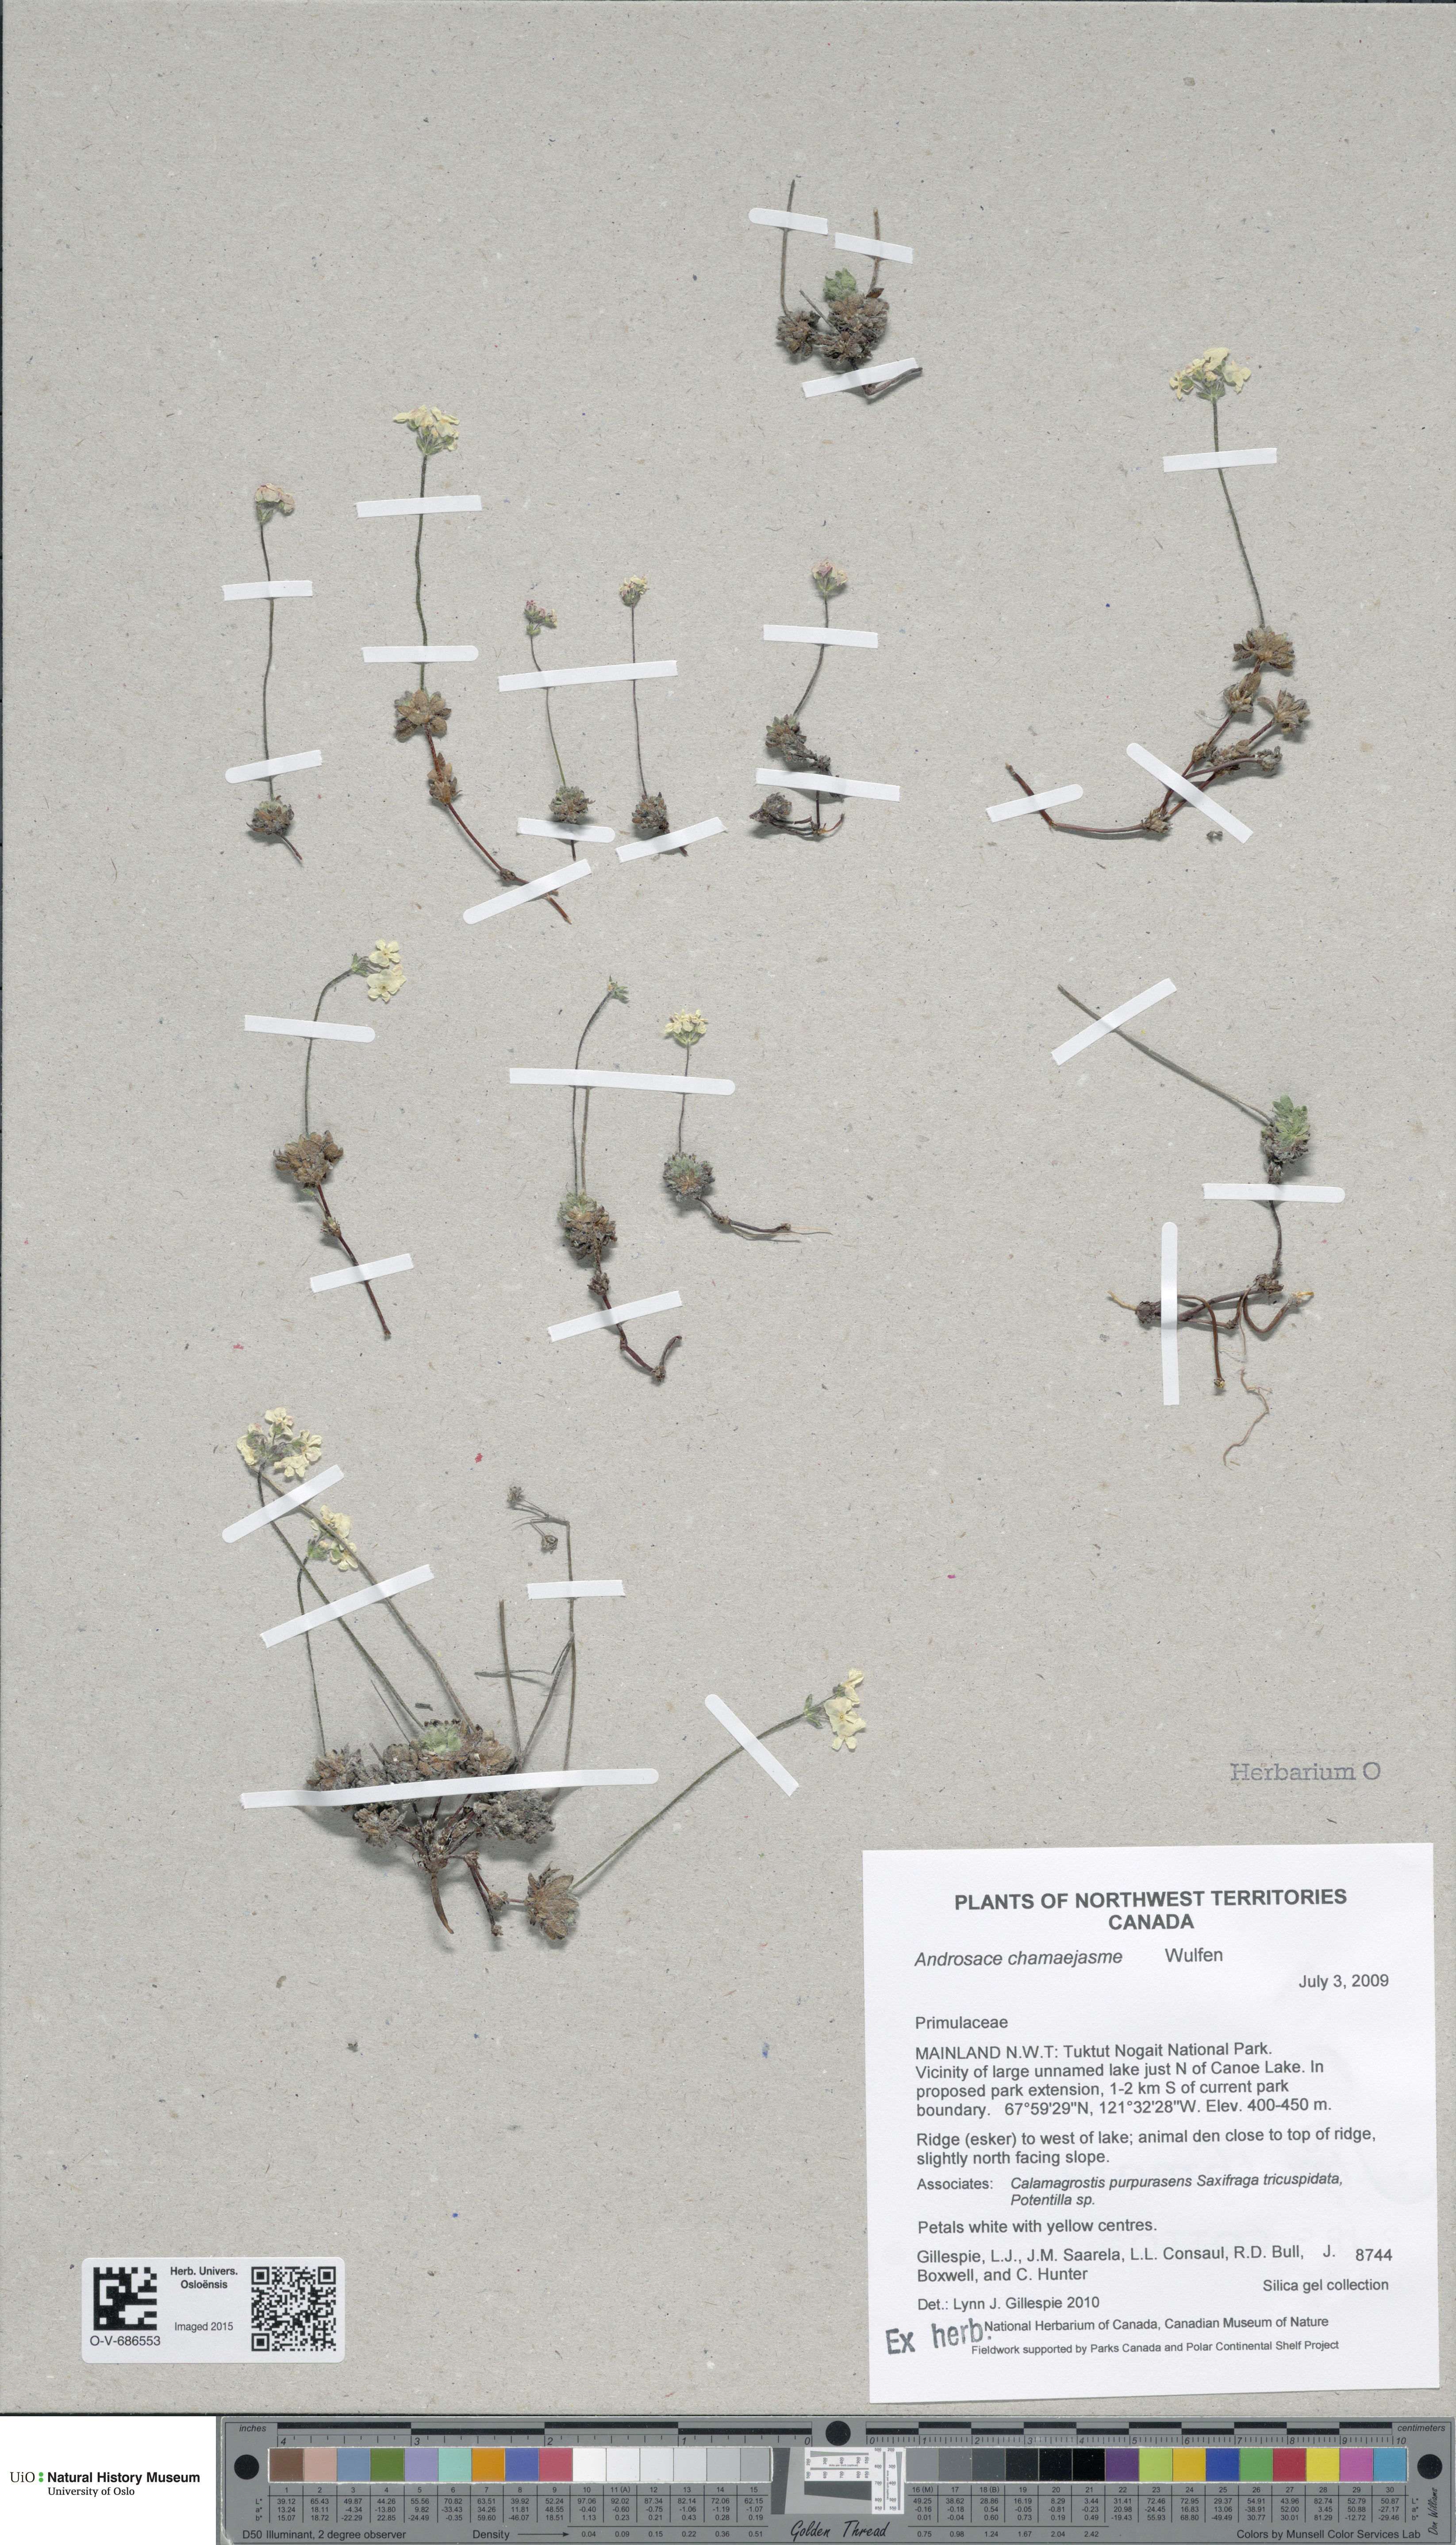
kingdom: Plantae
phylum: Tracheophyta
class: Magnoliopsida
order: Ericales
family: Primulaceae
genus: Androsace
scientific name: Androsace chamaejasme
